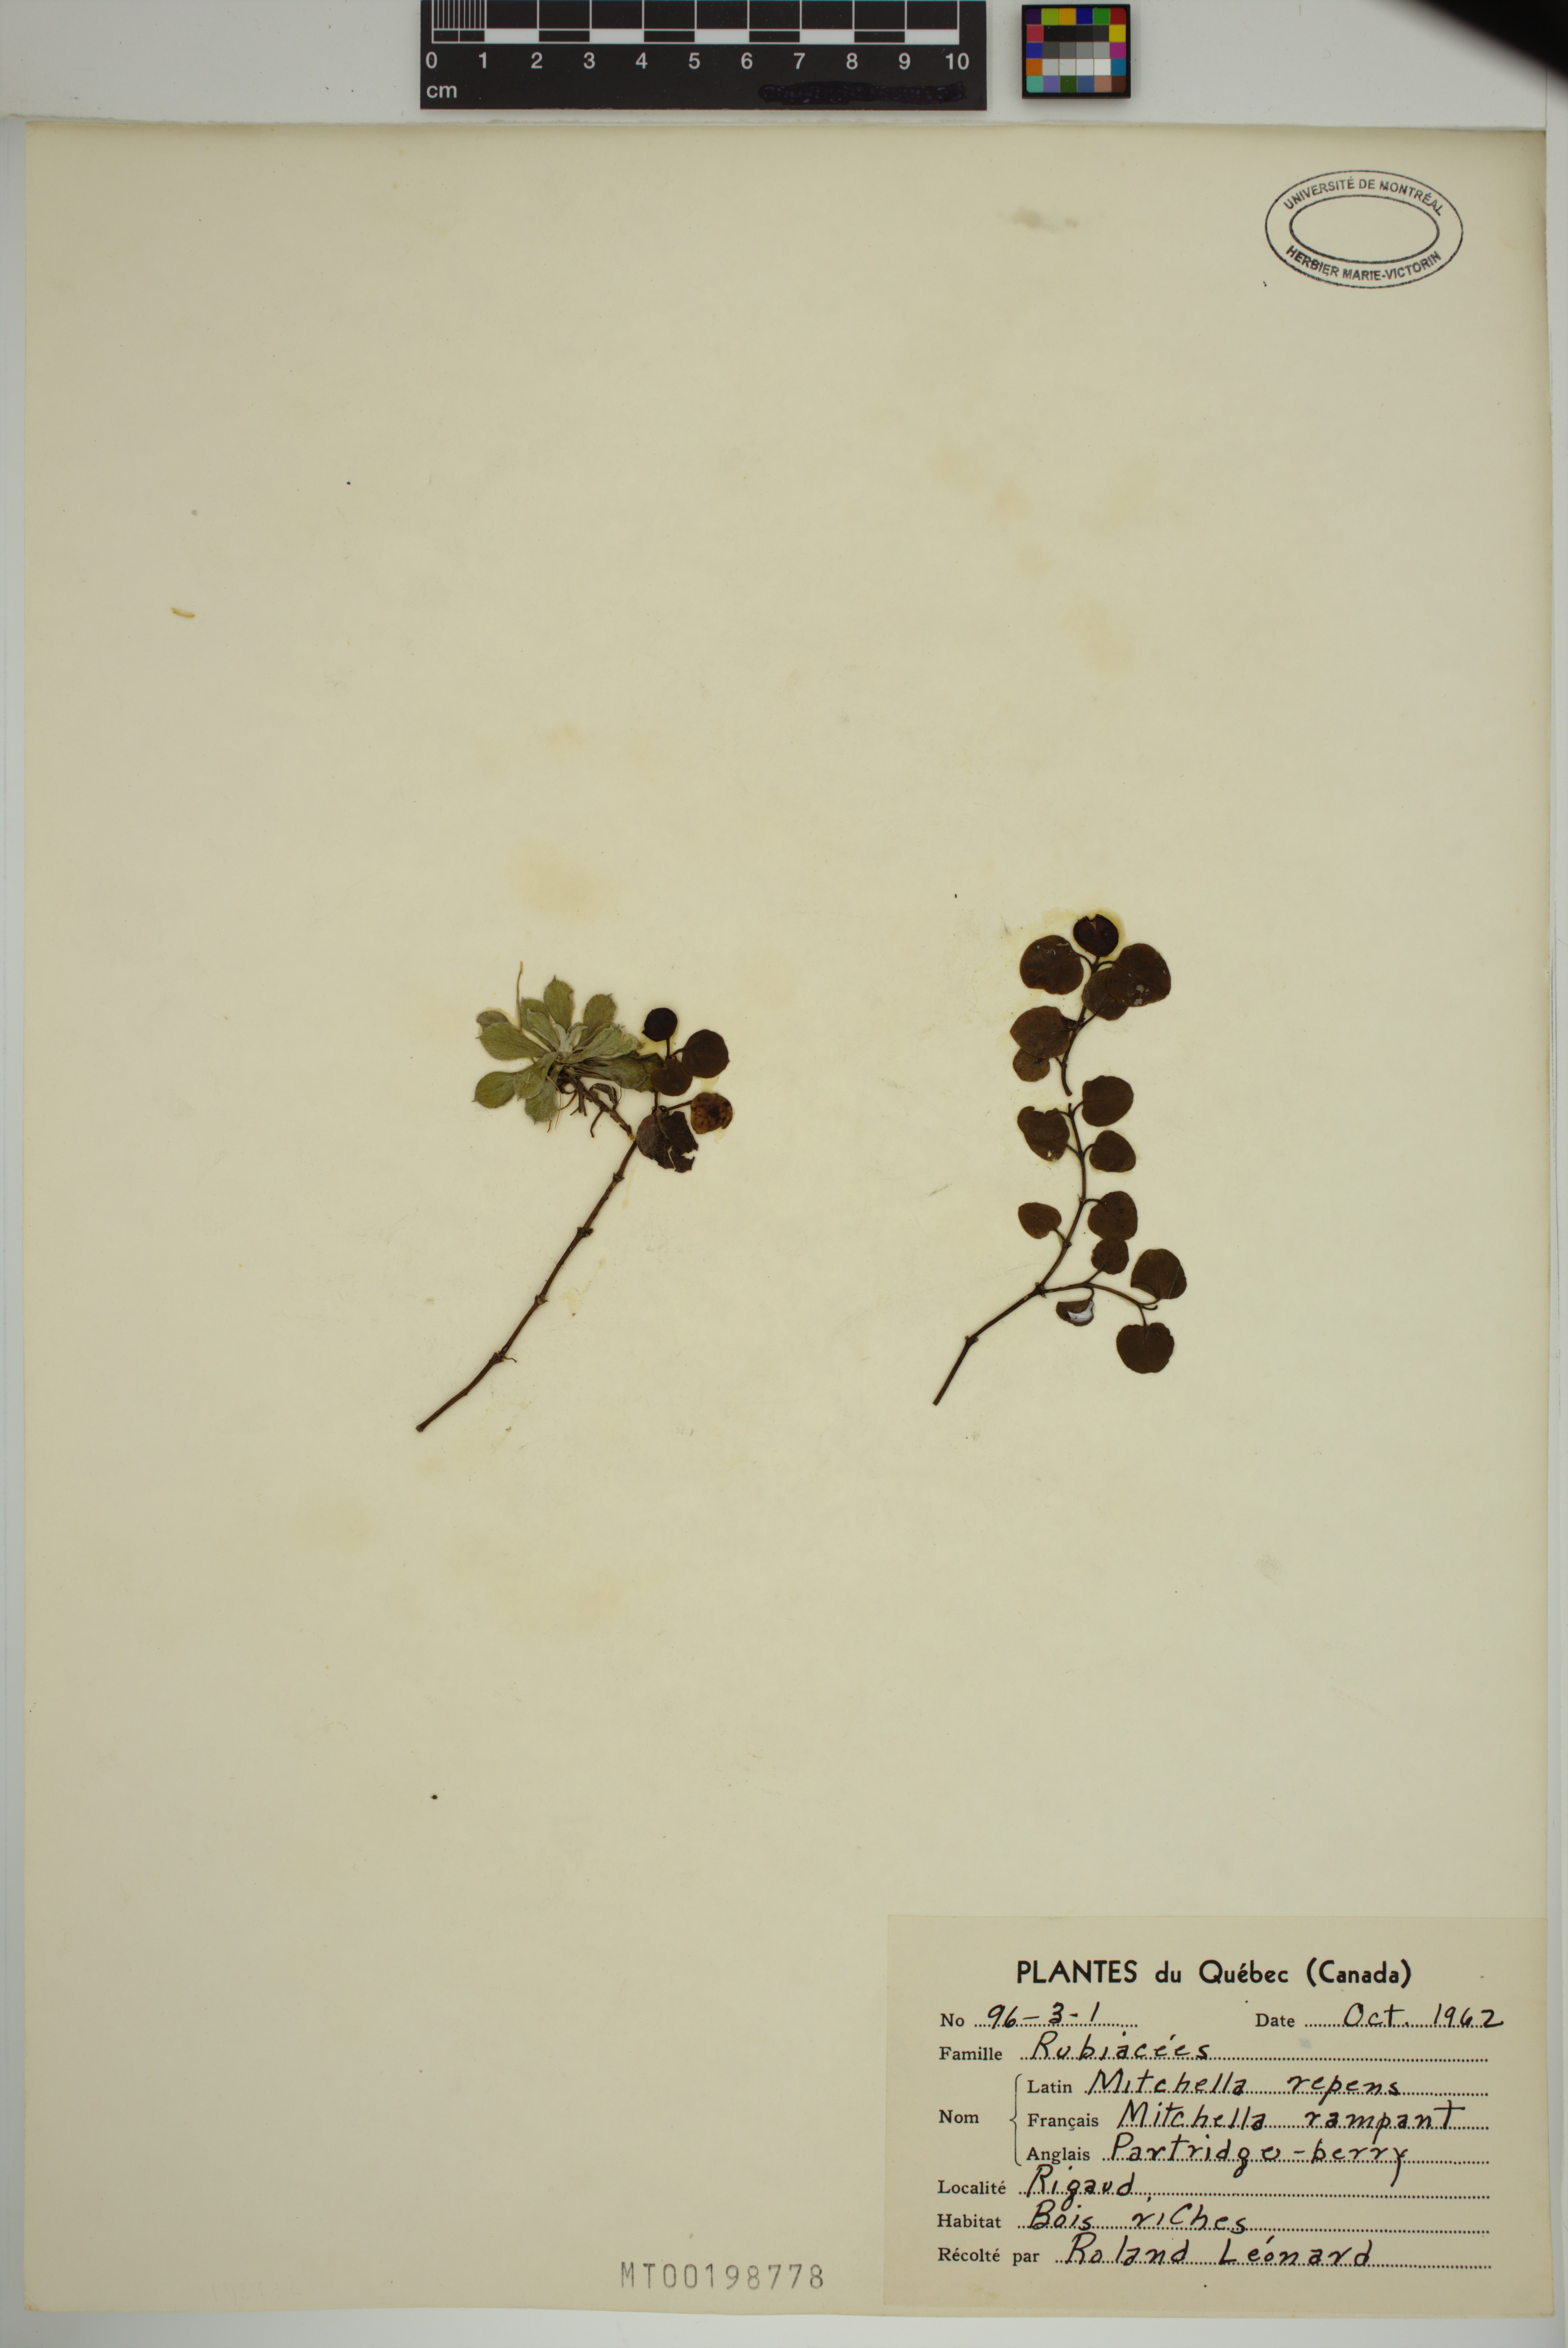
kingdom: Plantae
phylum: Tracheophyta
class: Magnoliopsida
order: Gentianales
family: Rubiaceae
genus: Mitchella
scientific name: Mitchella repens
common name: Partridge-berry
